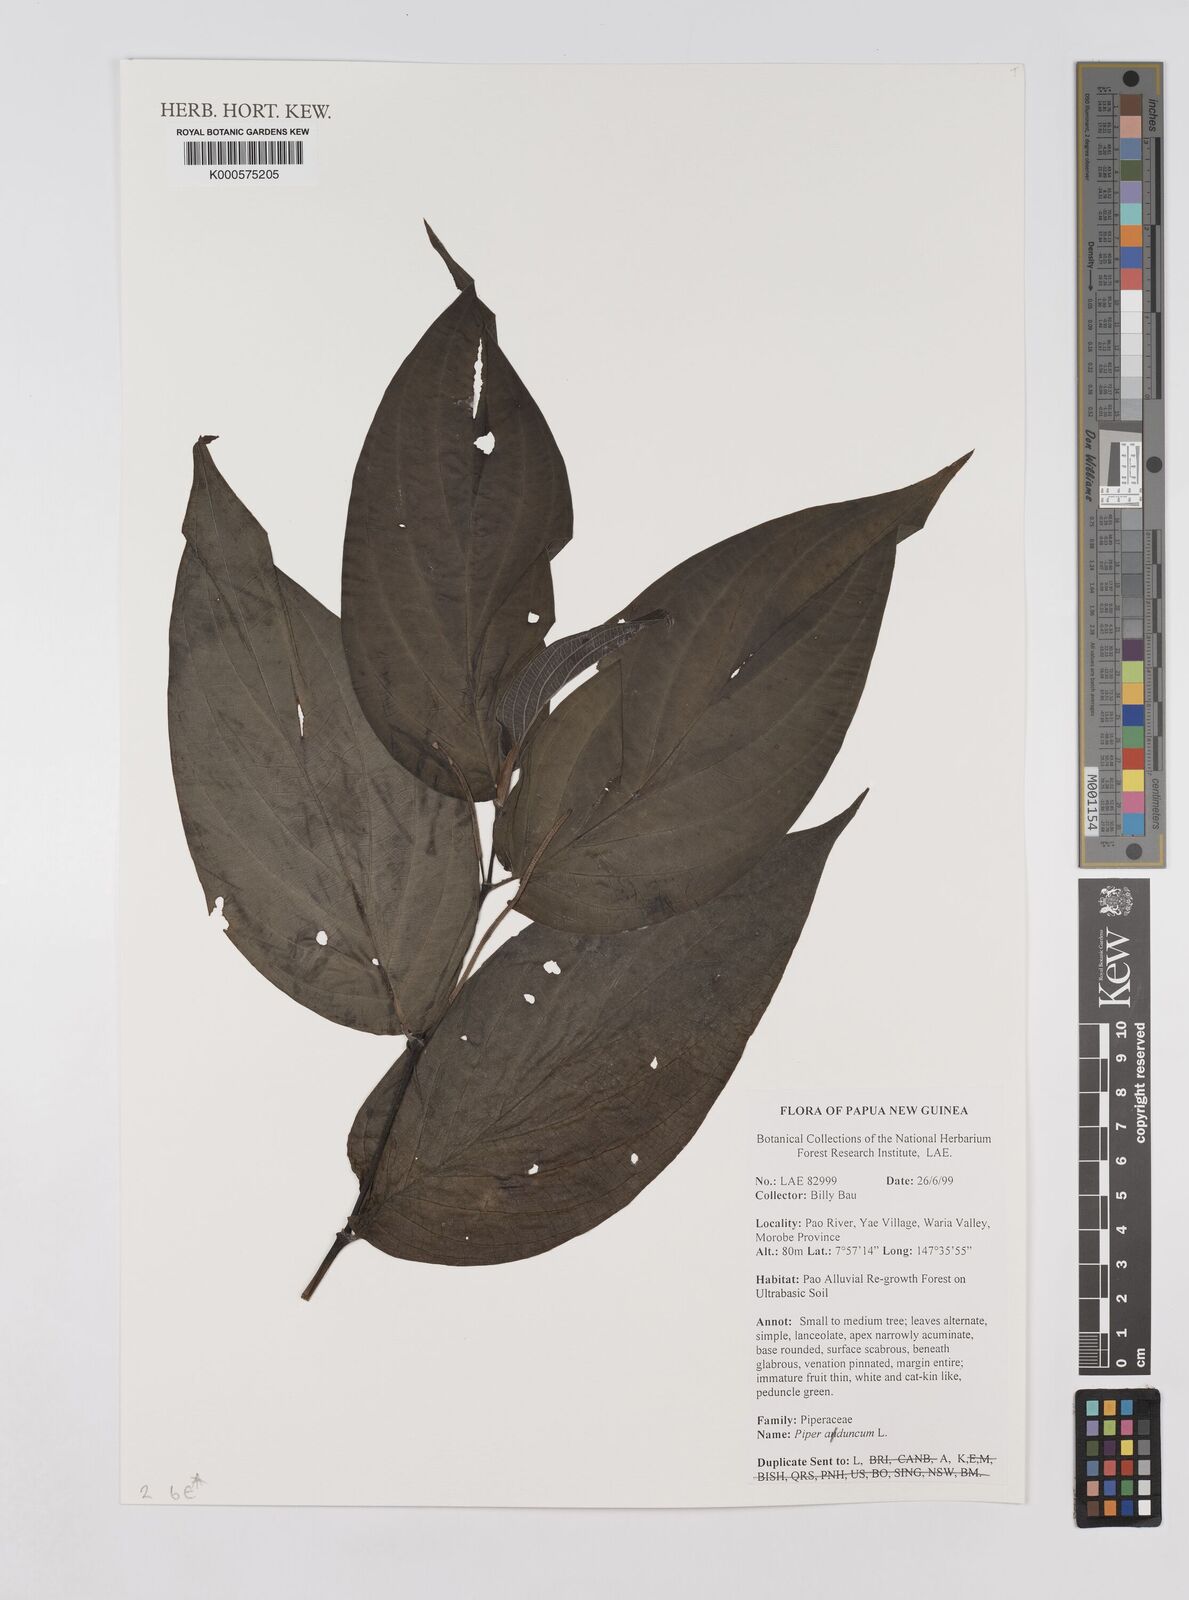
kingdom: Plantae
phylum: Tracheophyta
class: Magnoliopsida
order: Piperales
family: Piperaceae
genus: Piper
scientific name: Piper aduncum
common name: Spiked pepper
